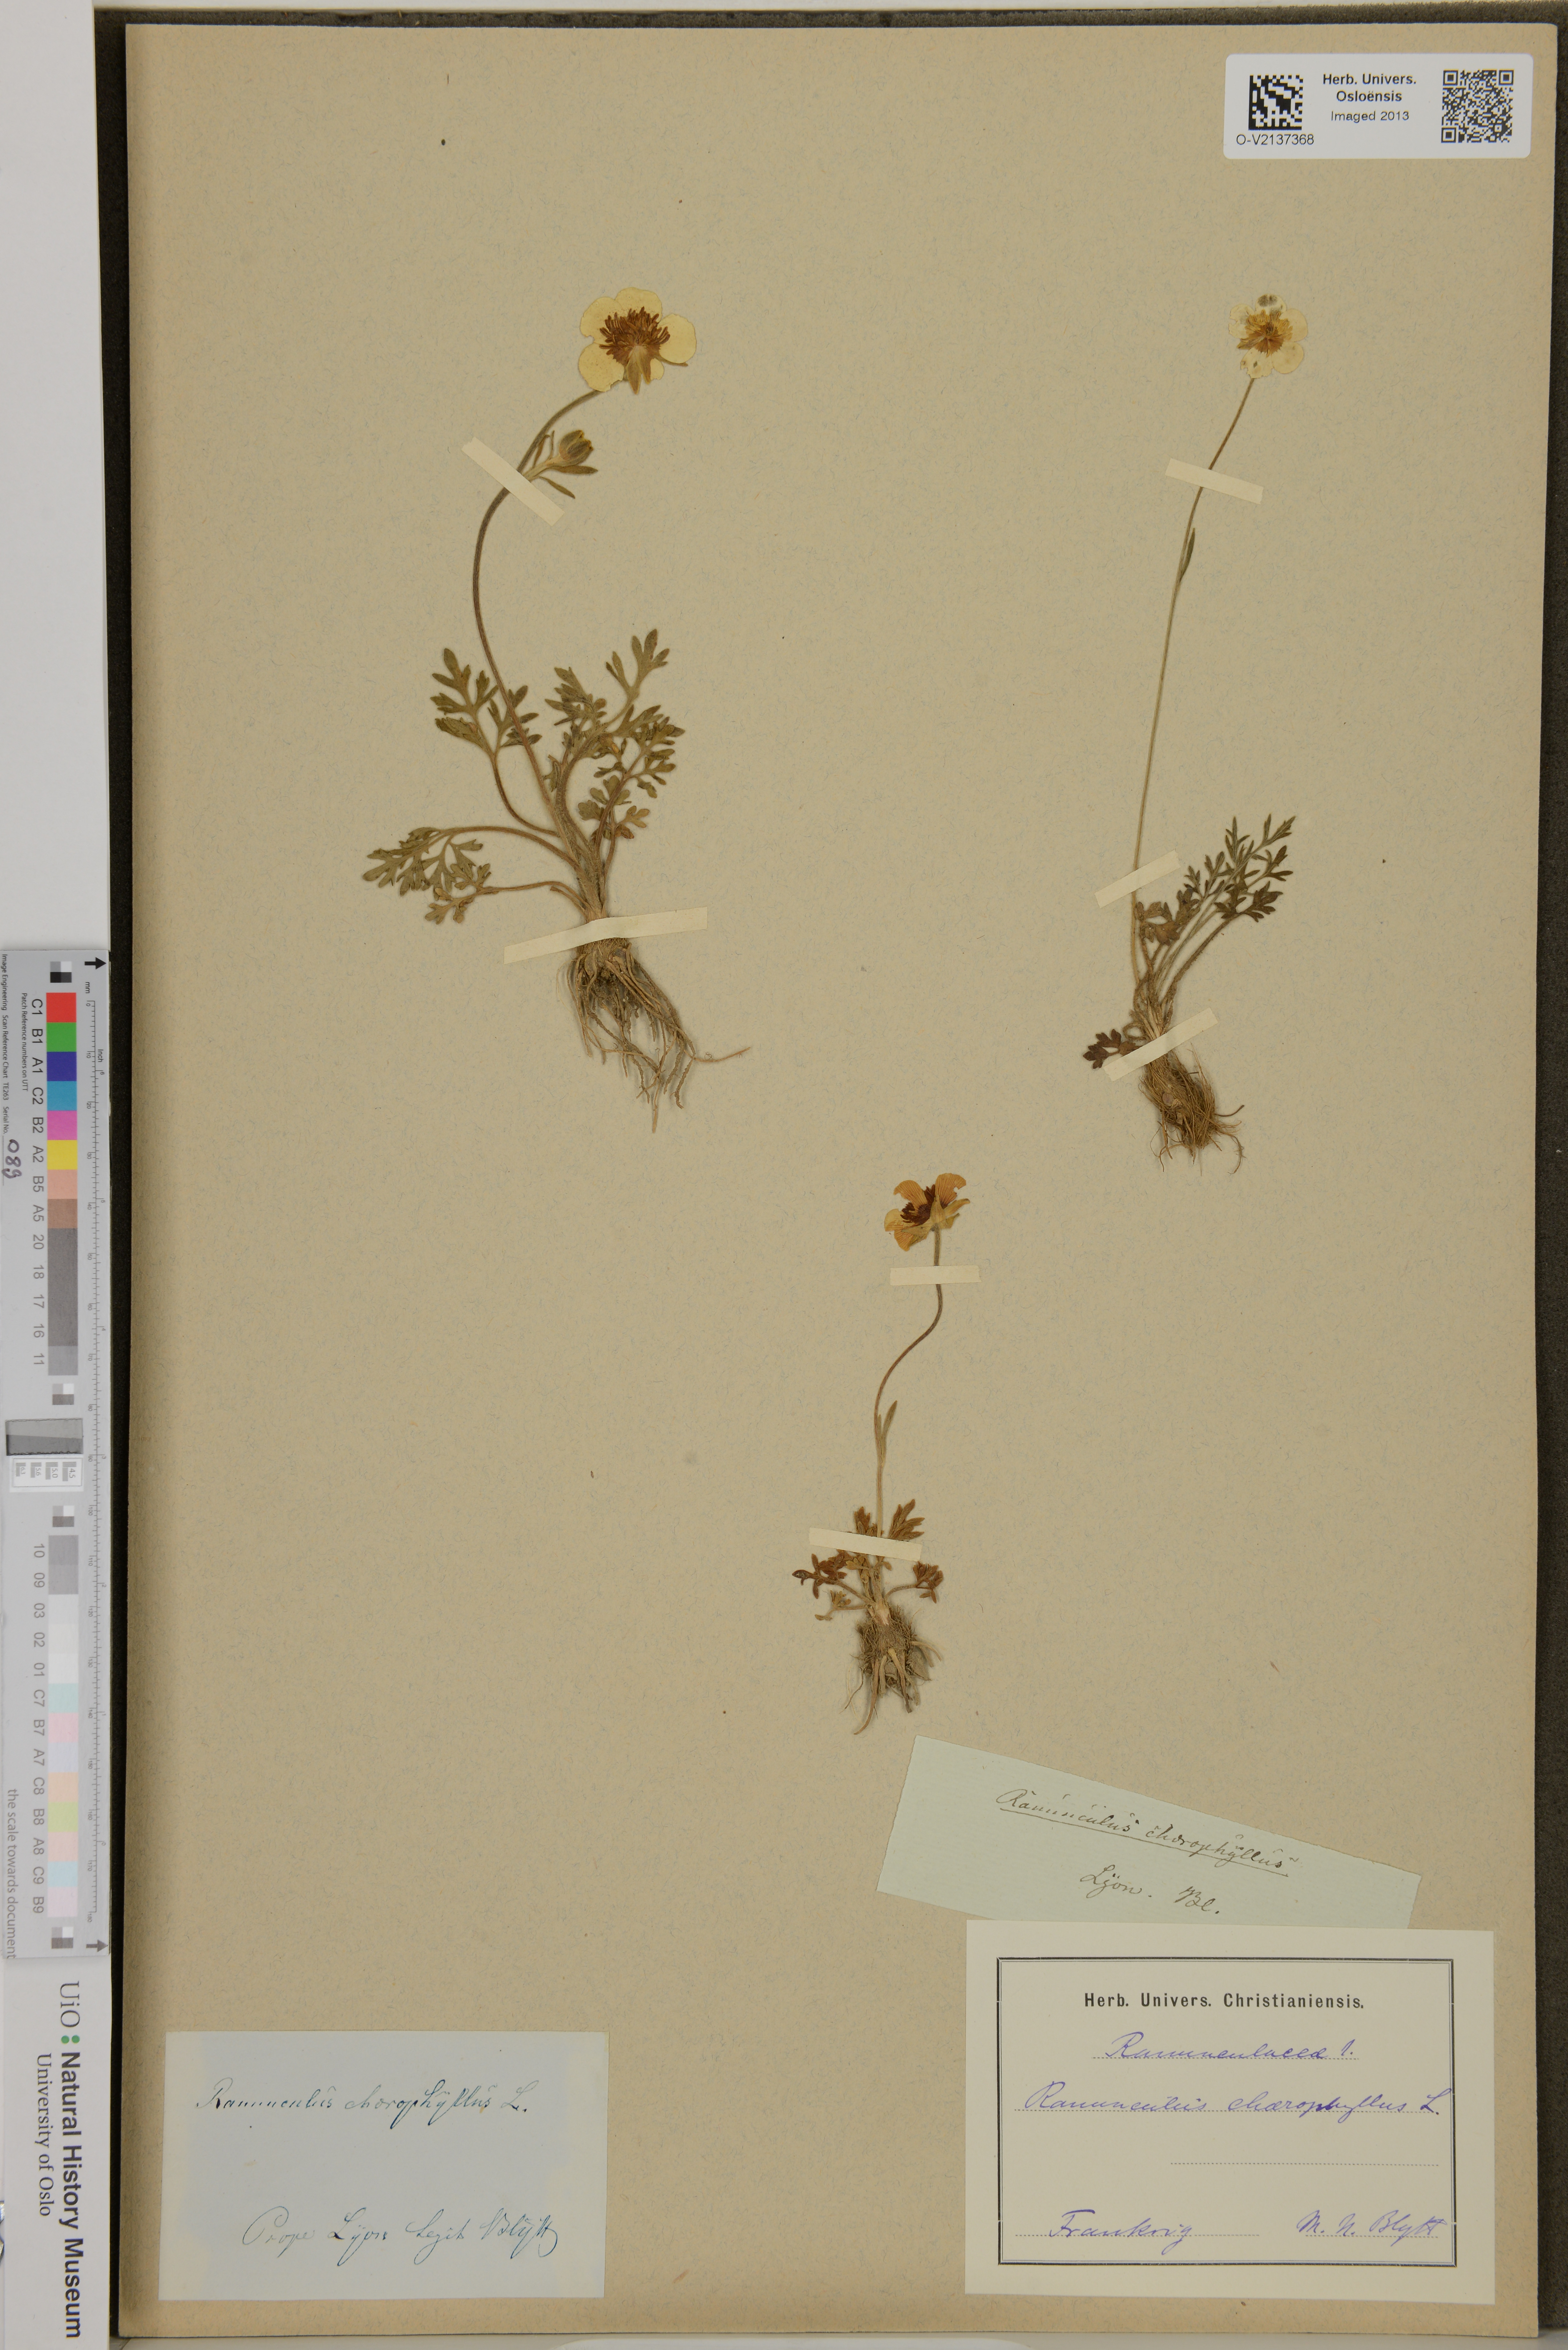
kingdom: Plantae
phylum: Tracheophyta
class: Magnoliopsida
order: Ranunculales
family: Ranunculaceae
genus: Ranunculus
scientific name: Ranunculus chaerophyllos
